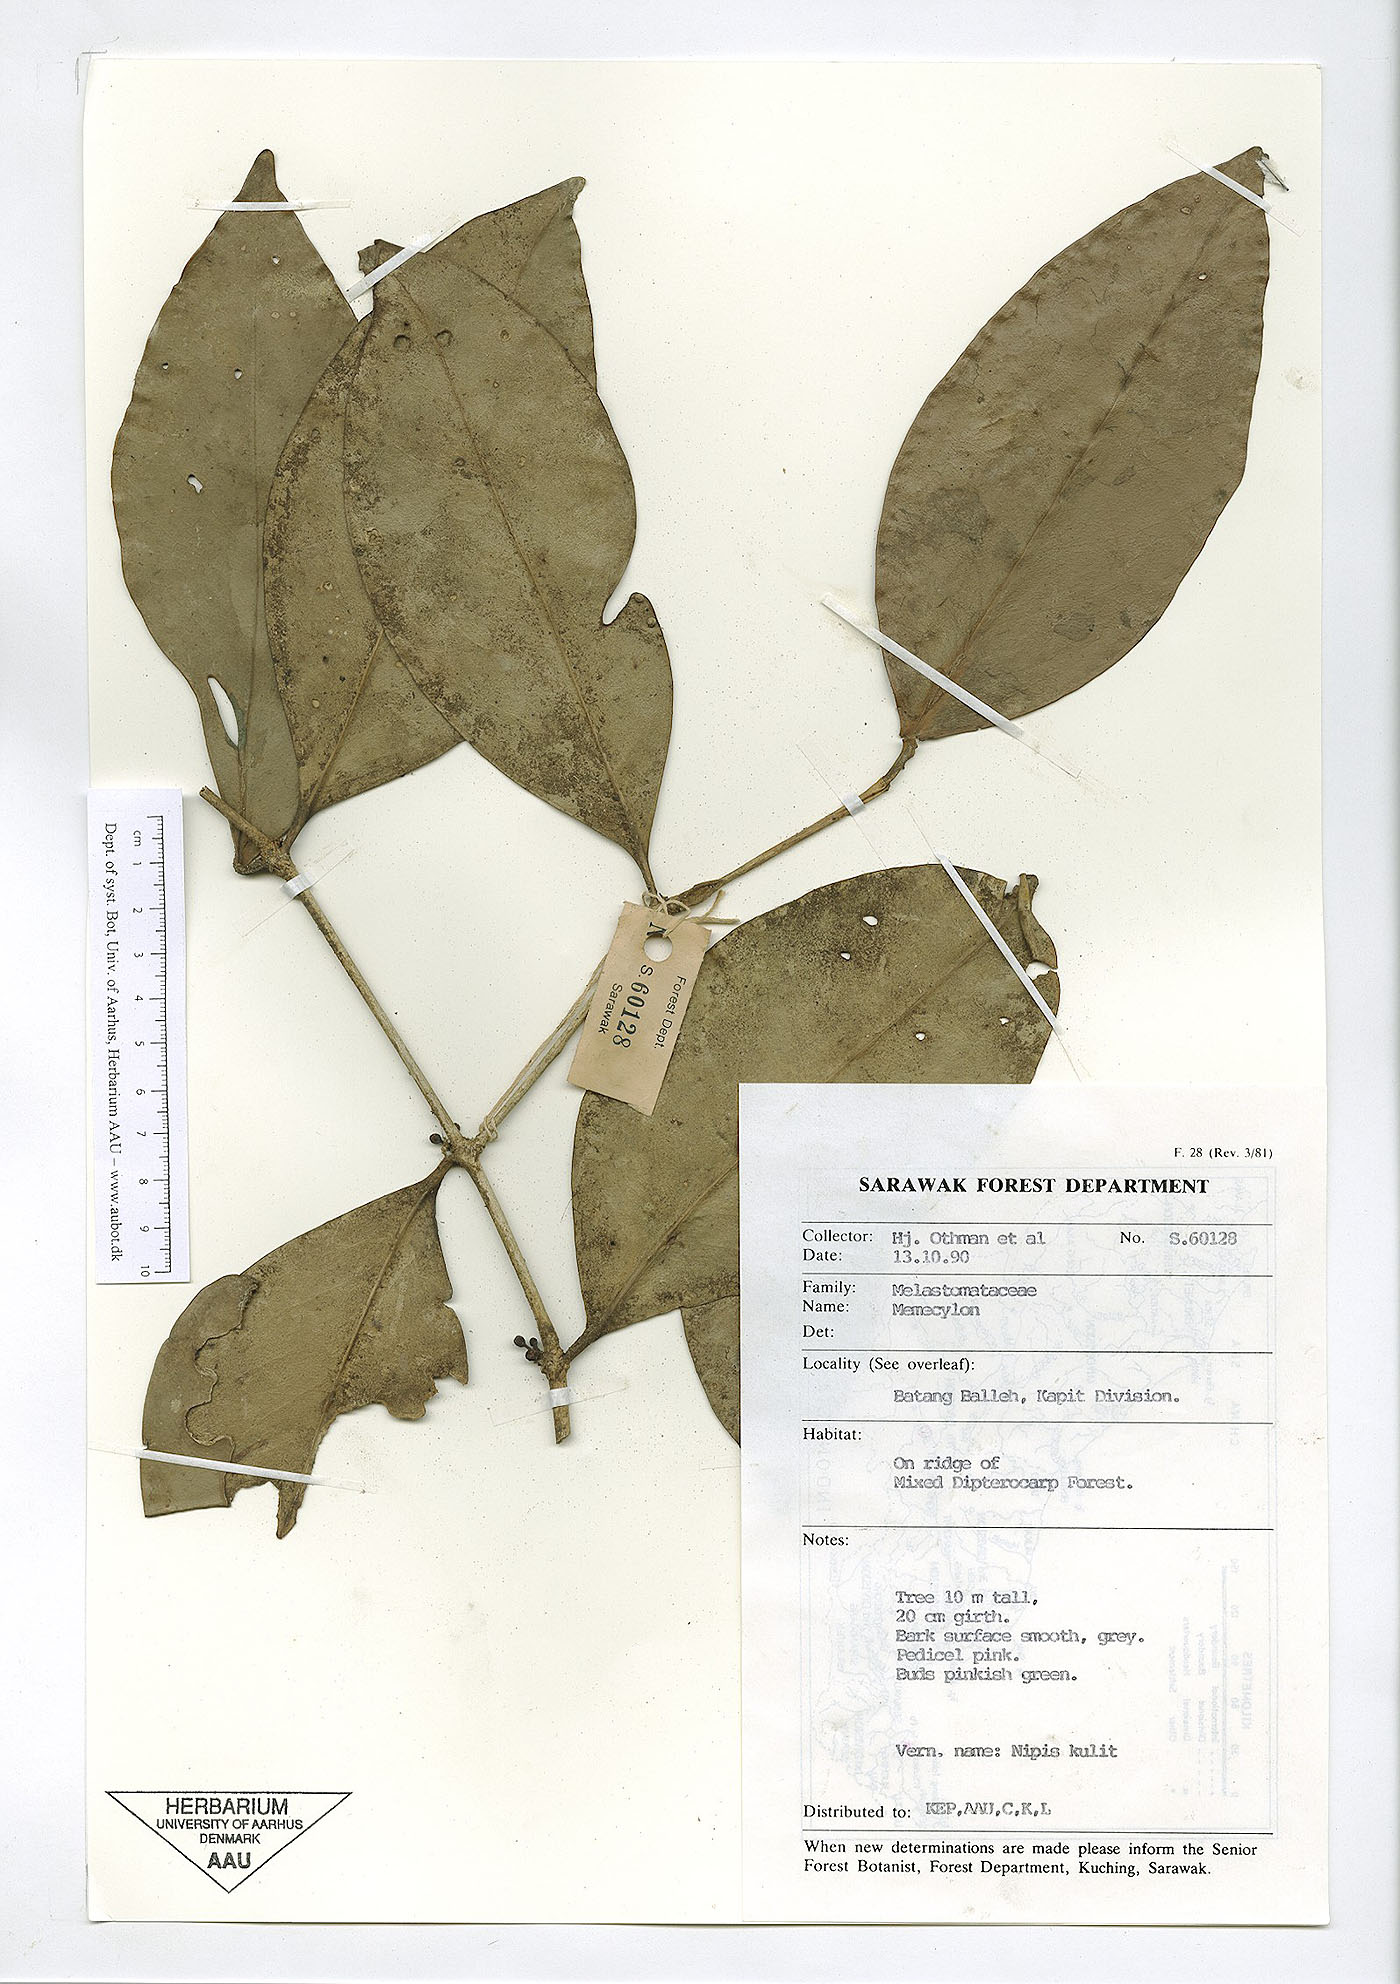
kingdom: Plantae
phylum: Tracheophyta
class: Magnoliopsida
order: Myrtales
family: Melastomataceae
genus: Memecylon
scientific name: Memecylon
